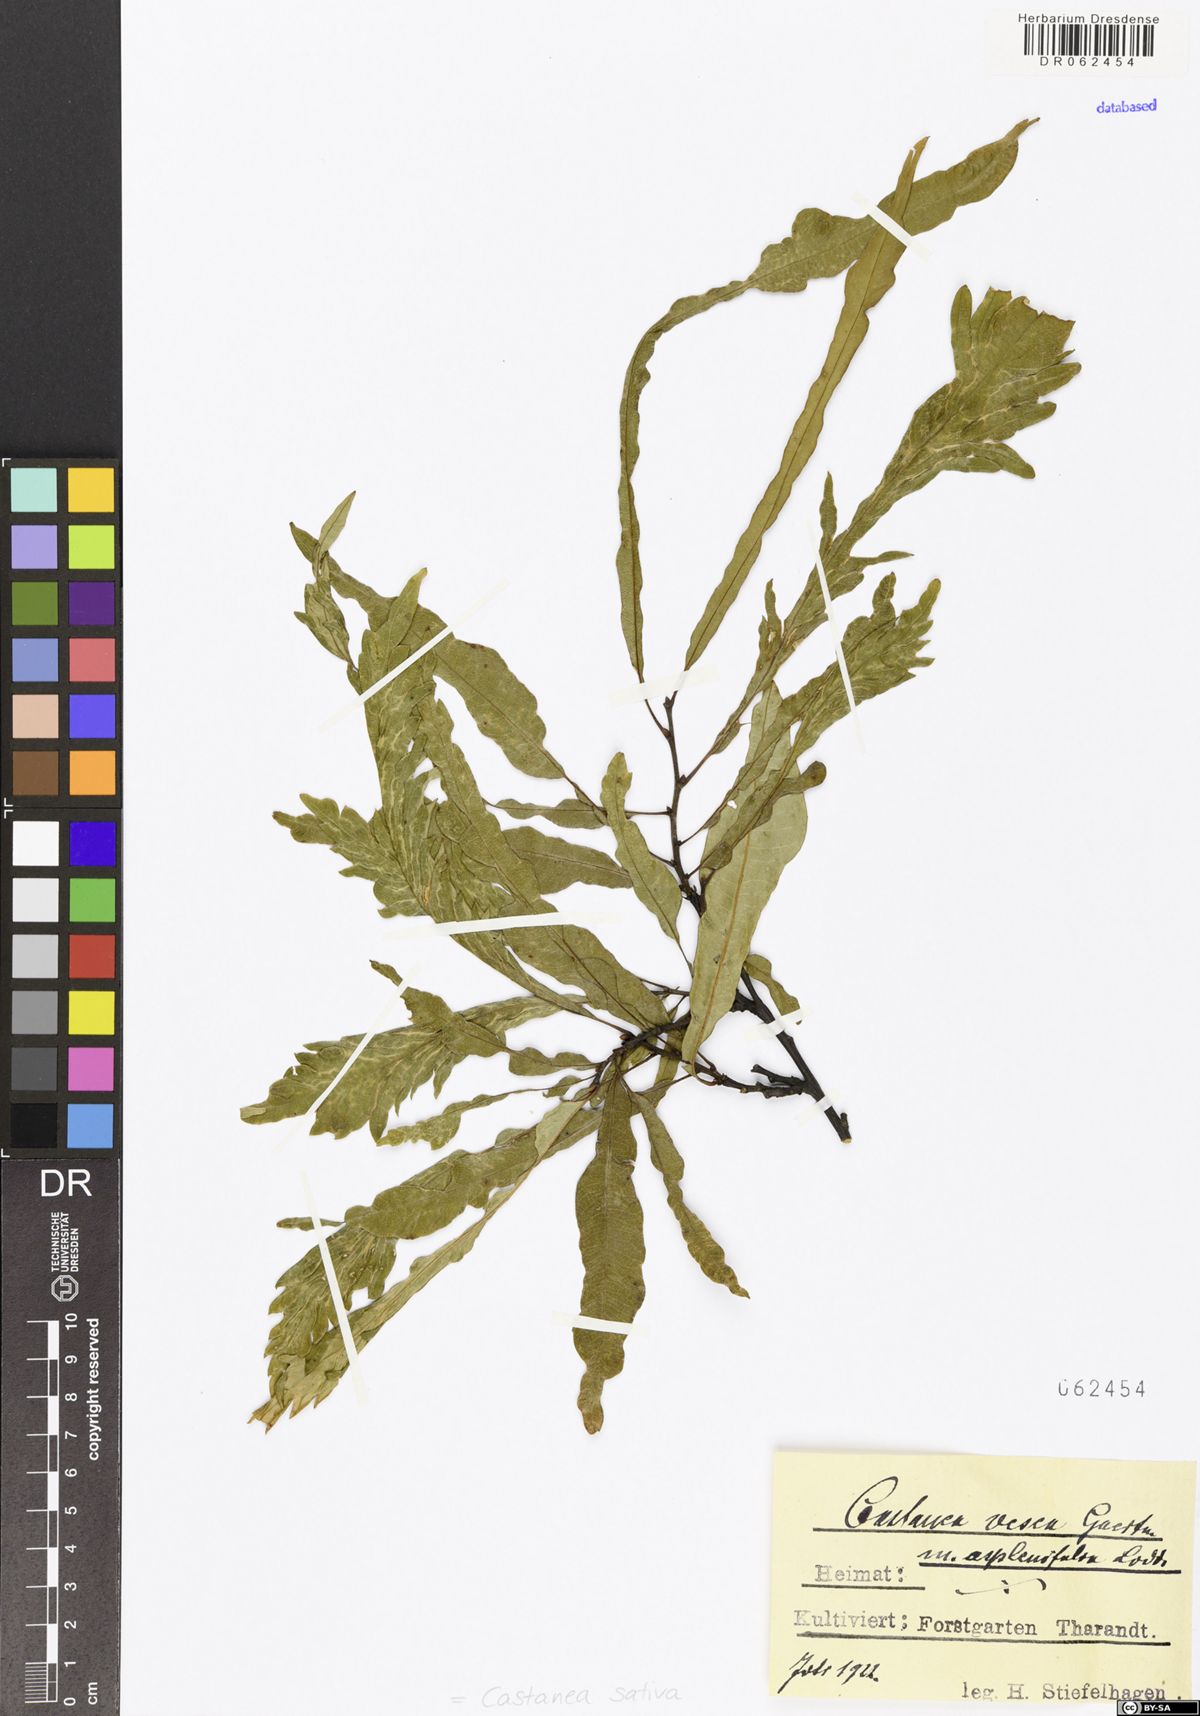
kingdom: Plantae
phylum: Tracheophyta
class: Magnoliopsida
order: Fagales
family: Fagaceae
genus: Castanea
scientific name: Castanea sativa
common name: Sweet chestnut
